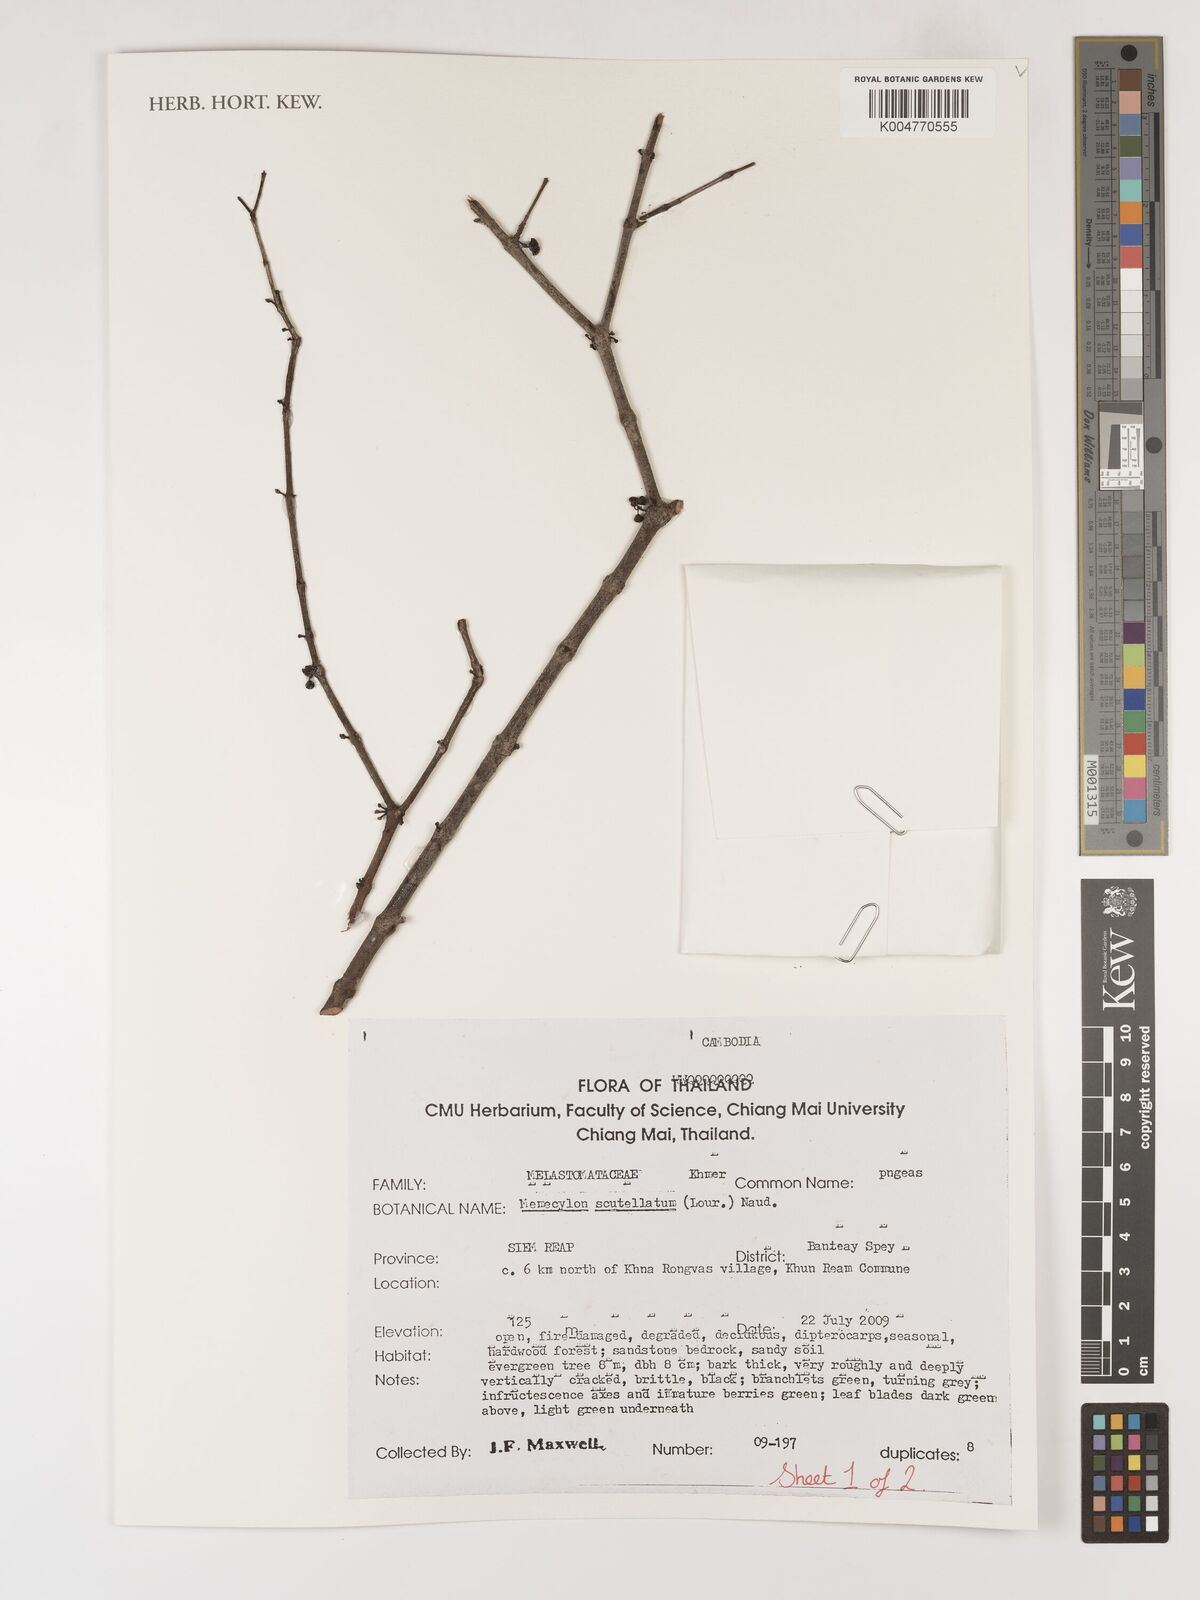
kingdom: Plantae
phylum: Tracheophyta
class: Magnoliopsida
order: Myrtales
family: Melastomataceae
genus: Memecylon
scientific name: Memecylon scutellatum
